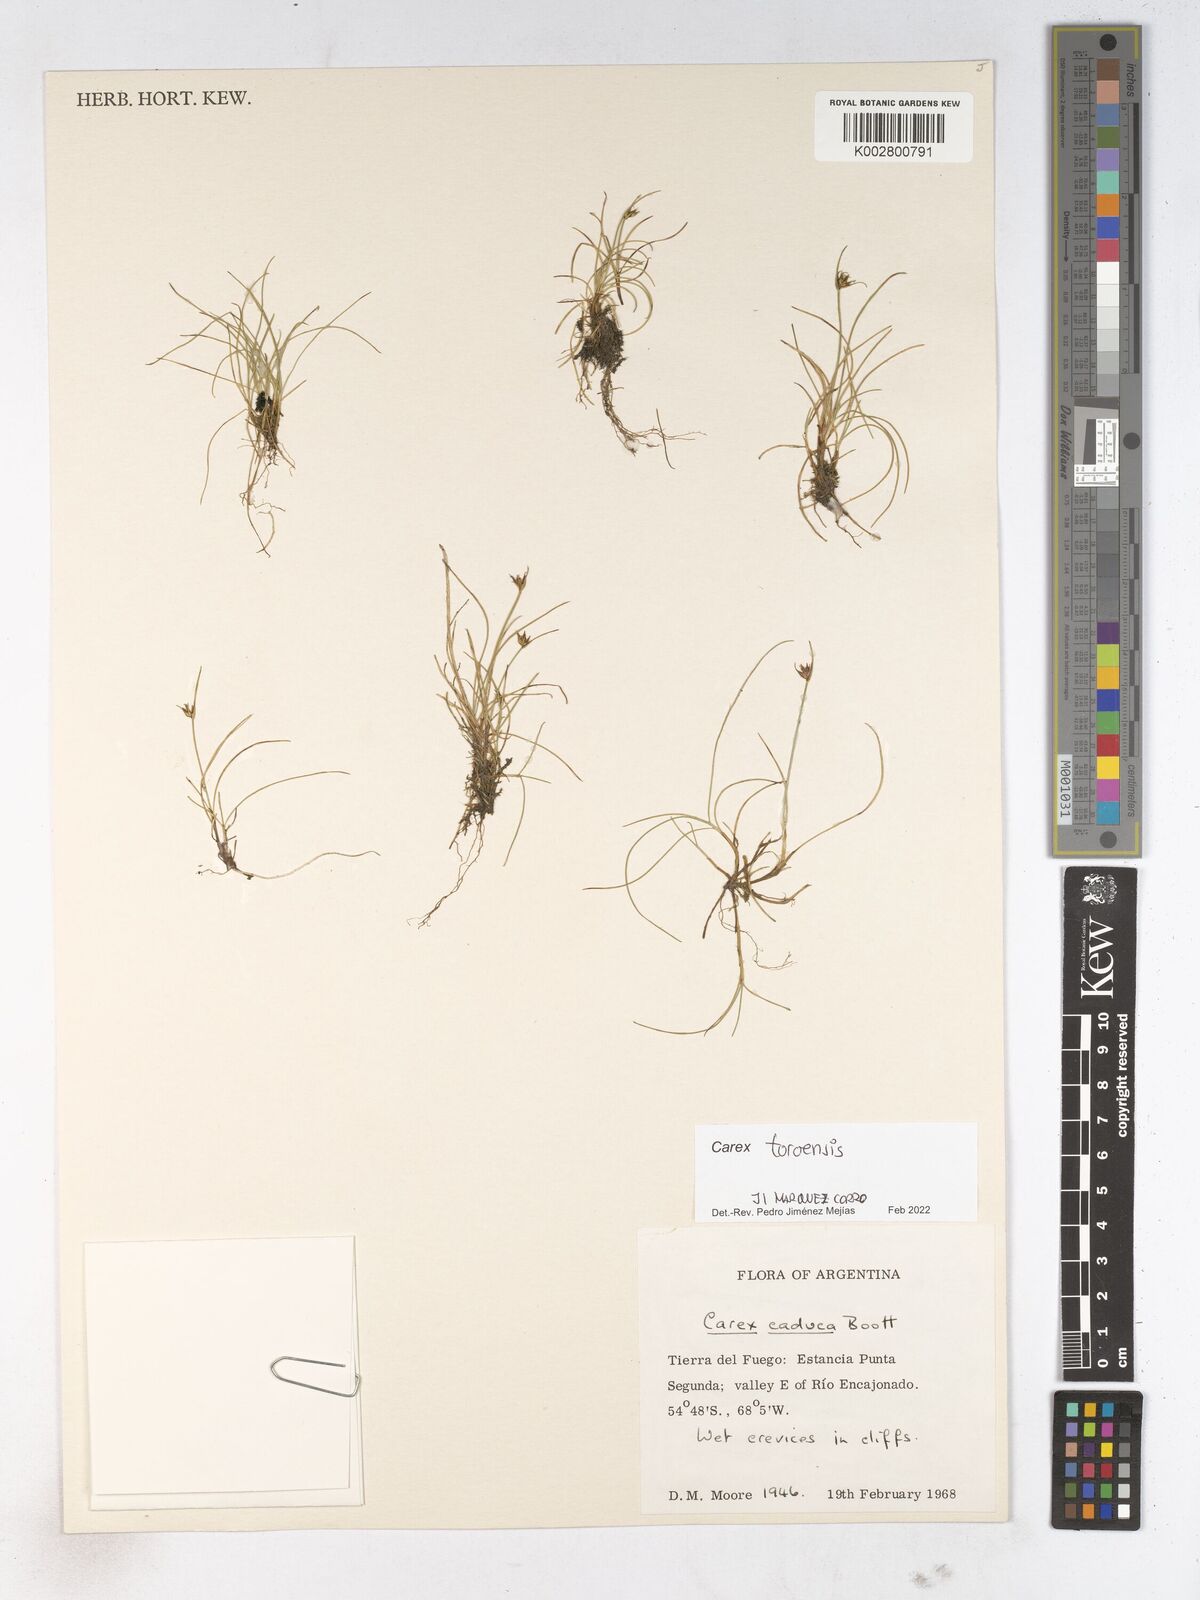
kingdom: Plantae
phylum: Tracheophyta
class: Liliopsida
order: Poales
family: Cyperaceae
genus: Carex
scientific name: Carex
